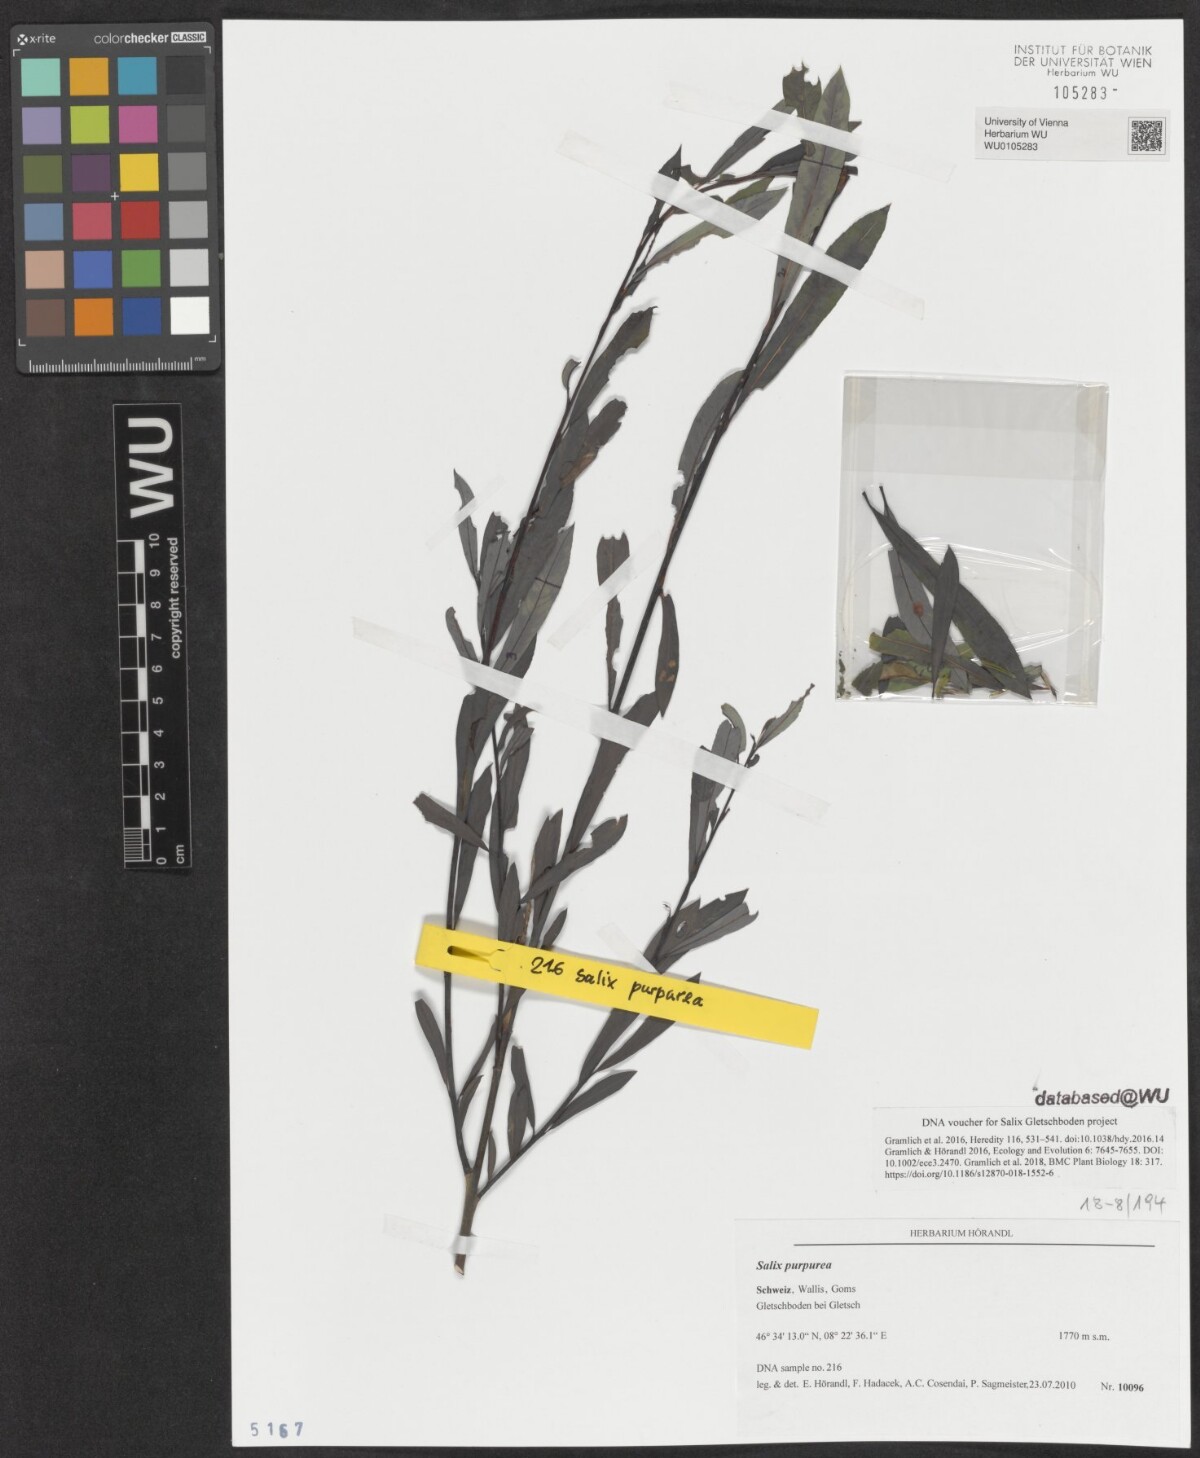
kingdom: Plantae
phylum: Tracheophyta
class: Magnoliopsida
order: Malpighiales
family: Salicaceae
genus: Salix
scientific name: Salix purpurea
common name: Purple willow
